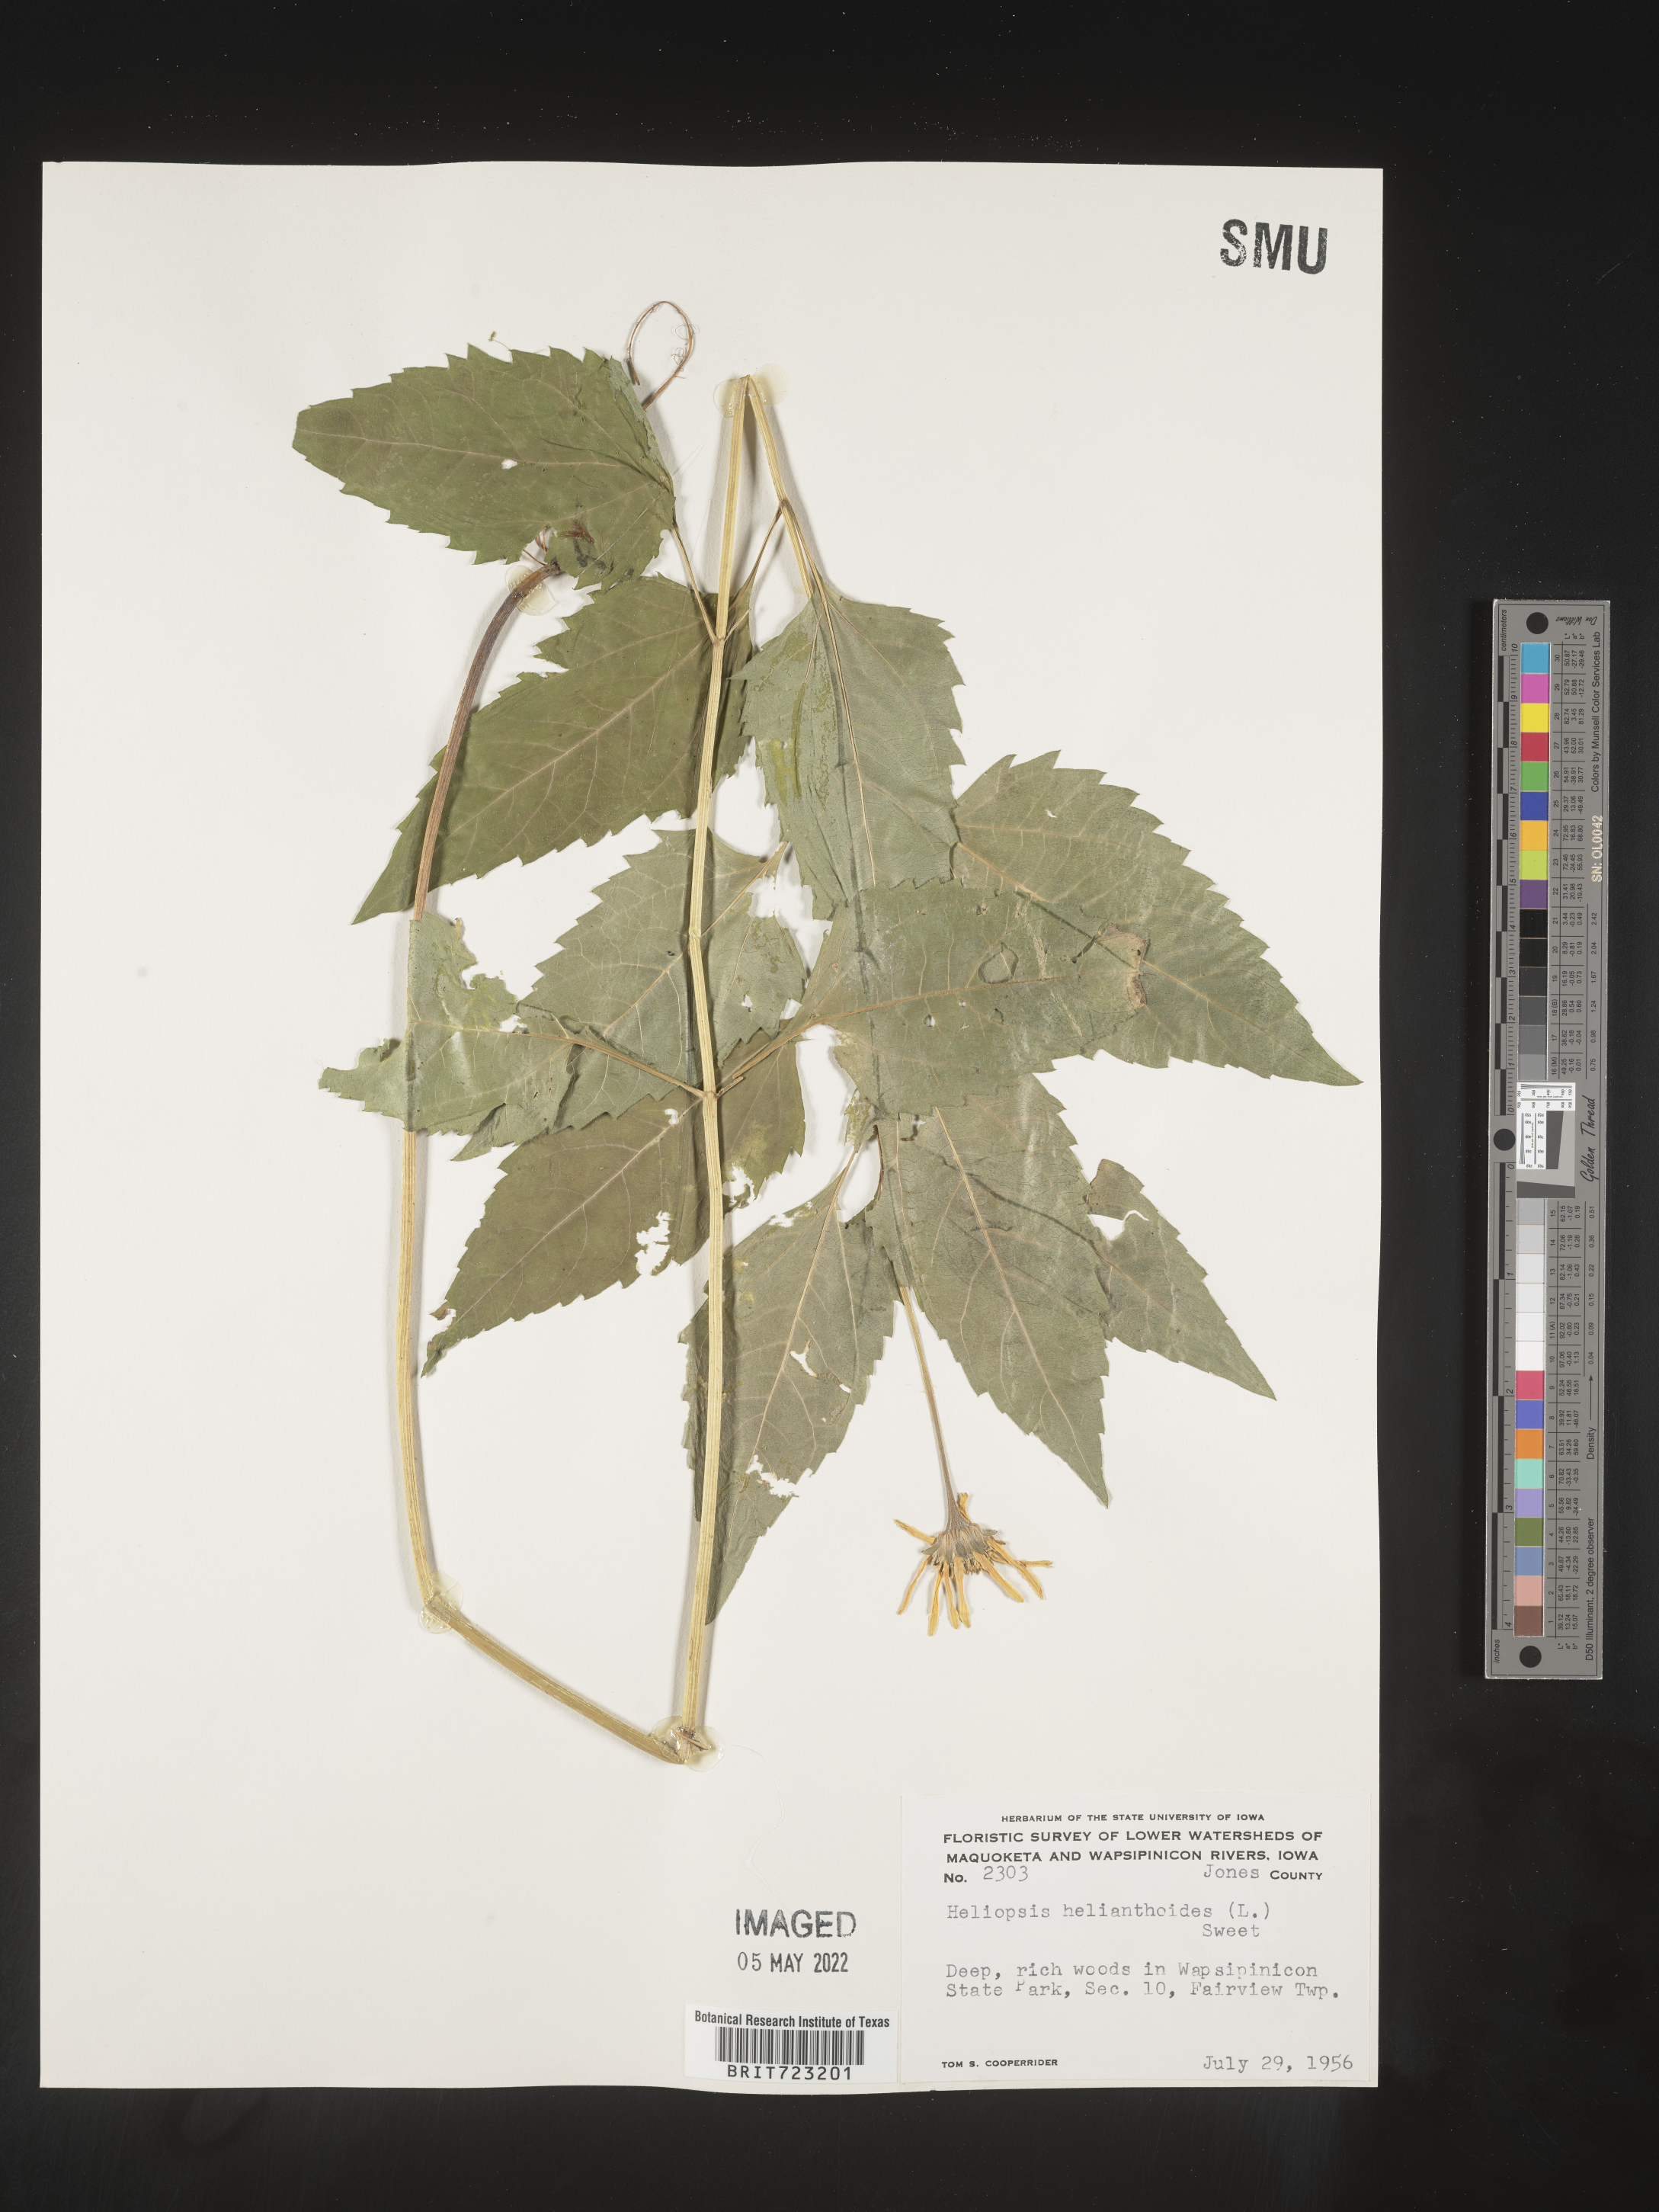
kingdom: Plantae
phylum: Tracheophyta
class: Magnoliopsida
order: Asterales
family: Asteraceae
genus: Heliopsis
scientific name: Heliopsis helianthoides
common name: False sunflower
